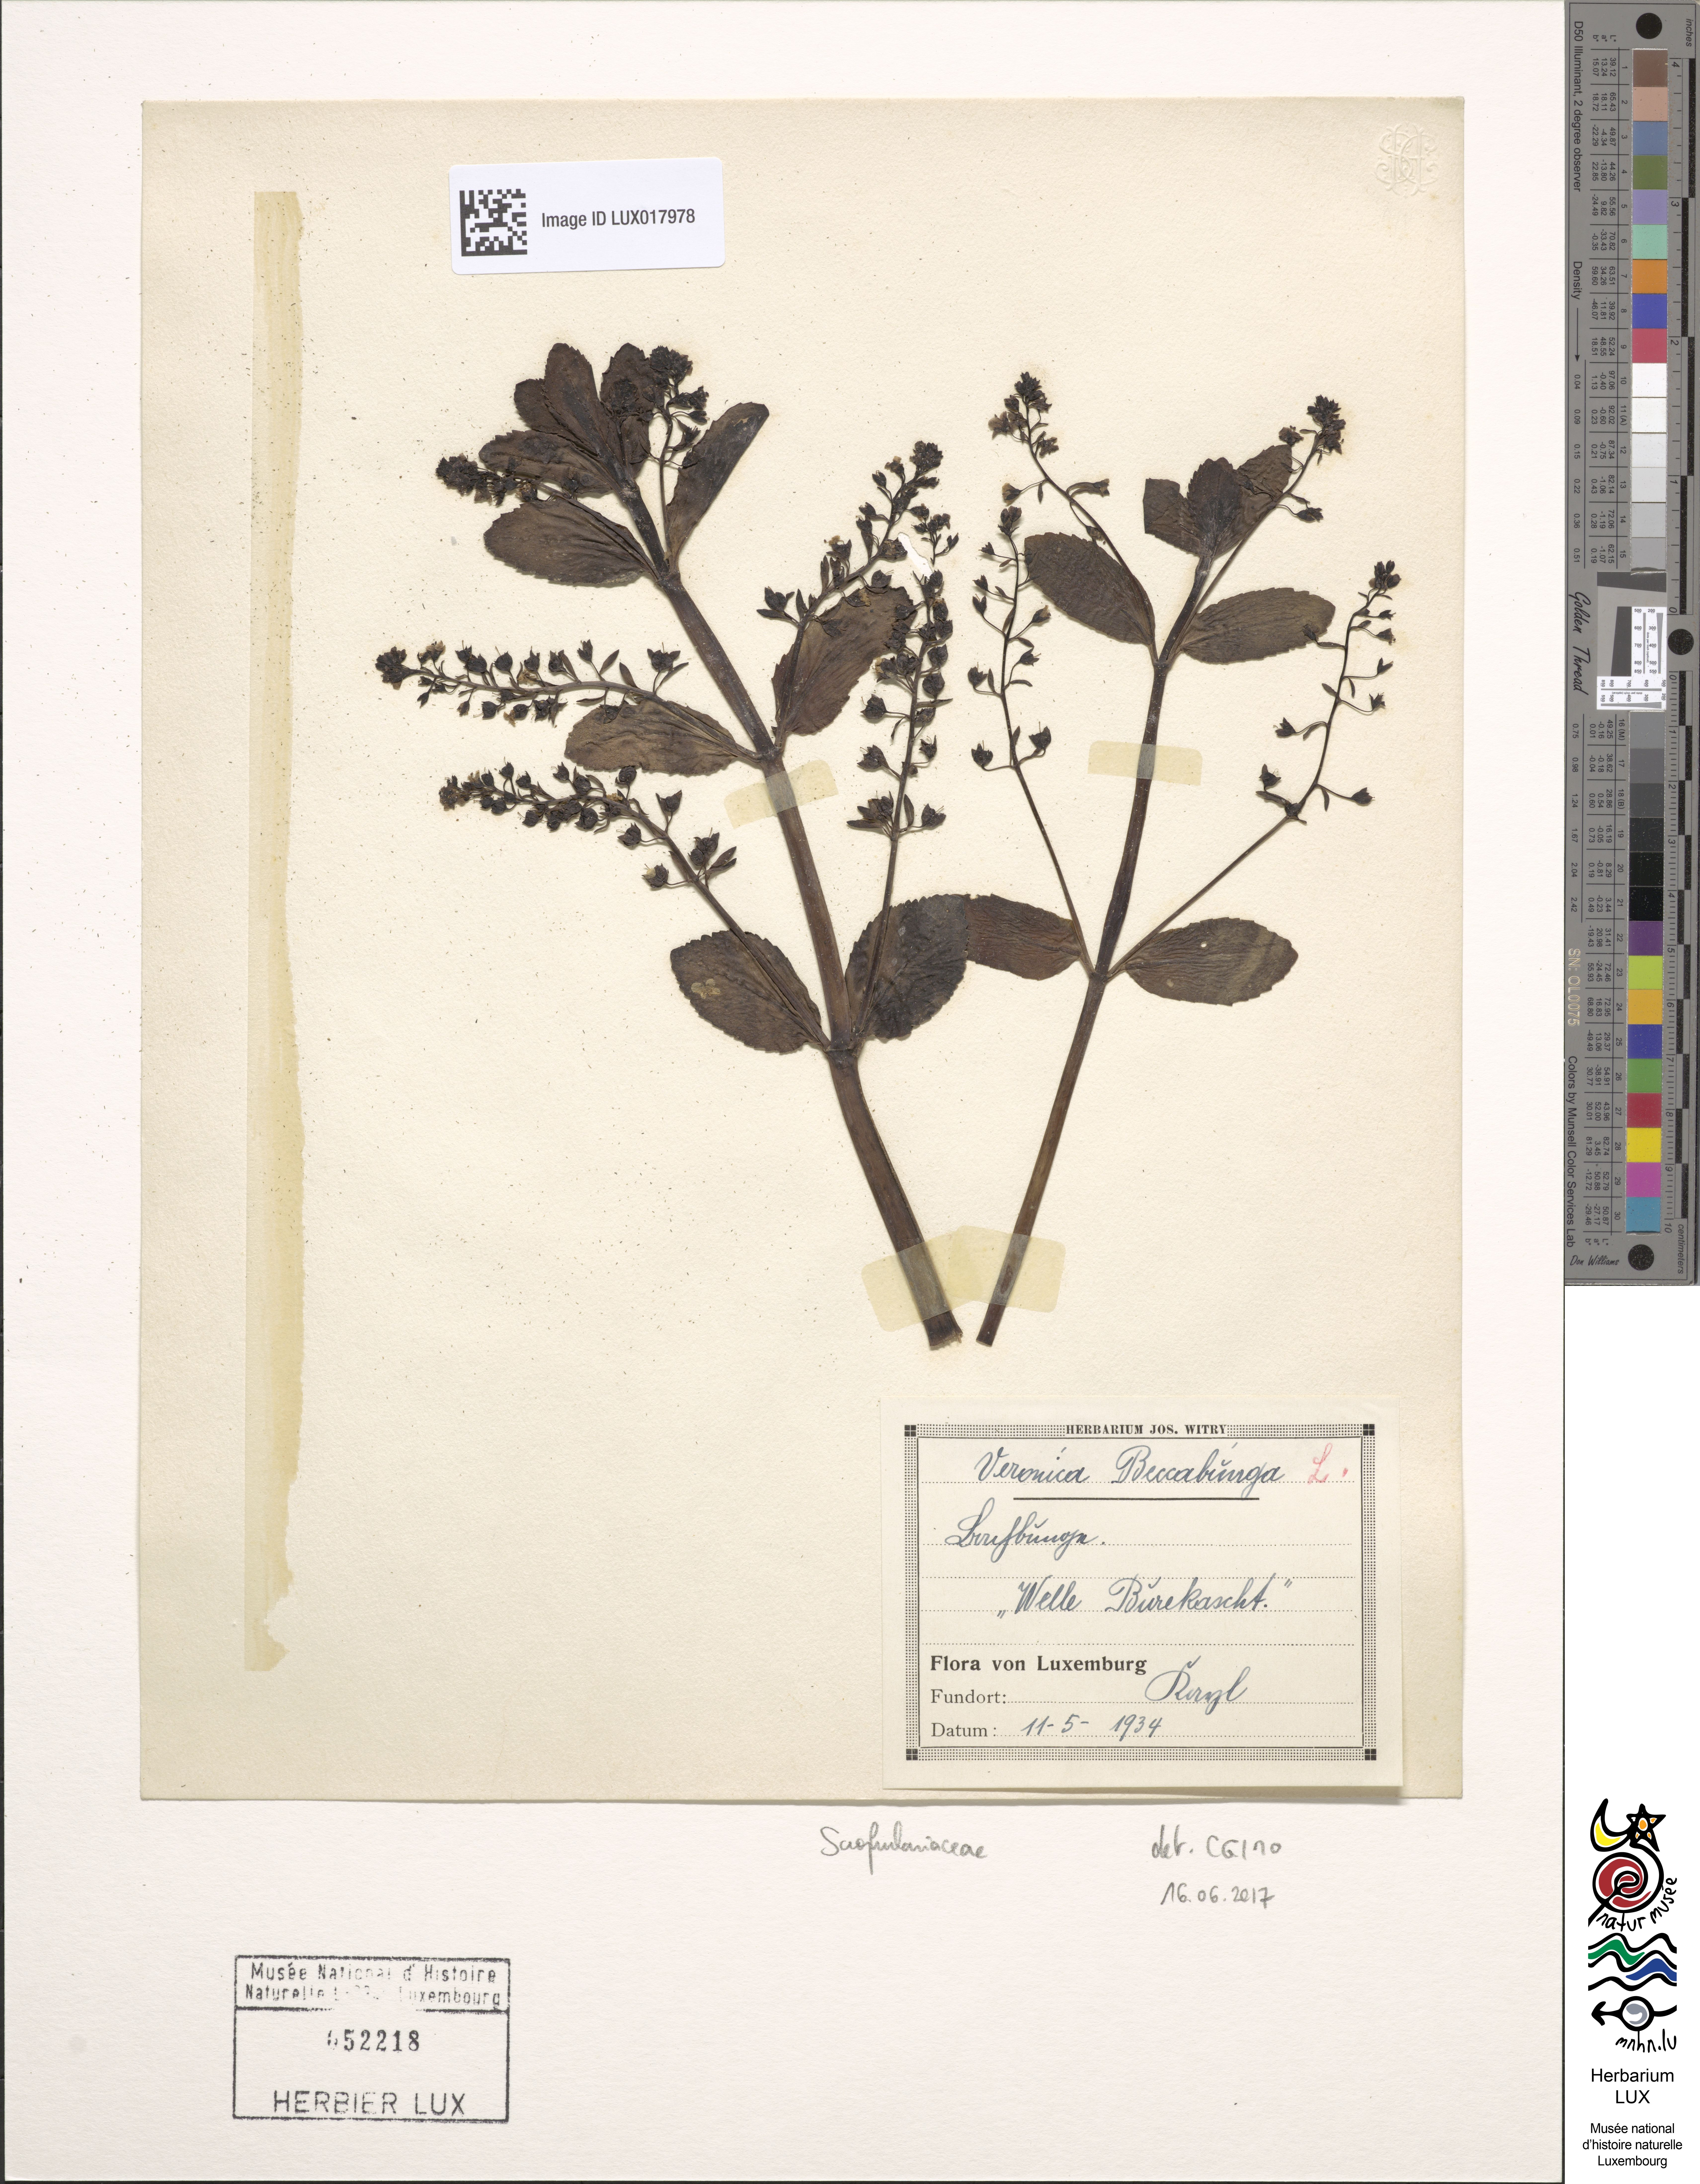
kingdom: Plantae
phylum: Tracheophyta
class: Magnoliopsida
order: Lamiales
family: Plantaginaceae
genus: Veronica
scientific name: Veronica beccabunga
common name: Brooklime
